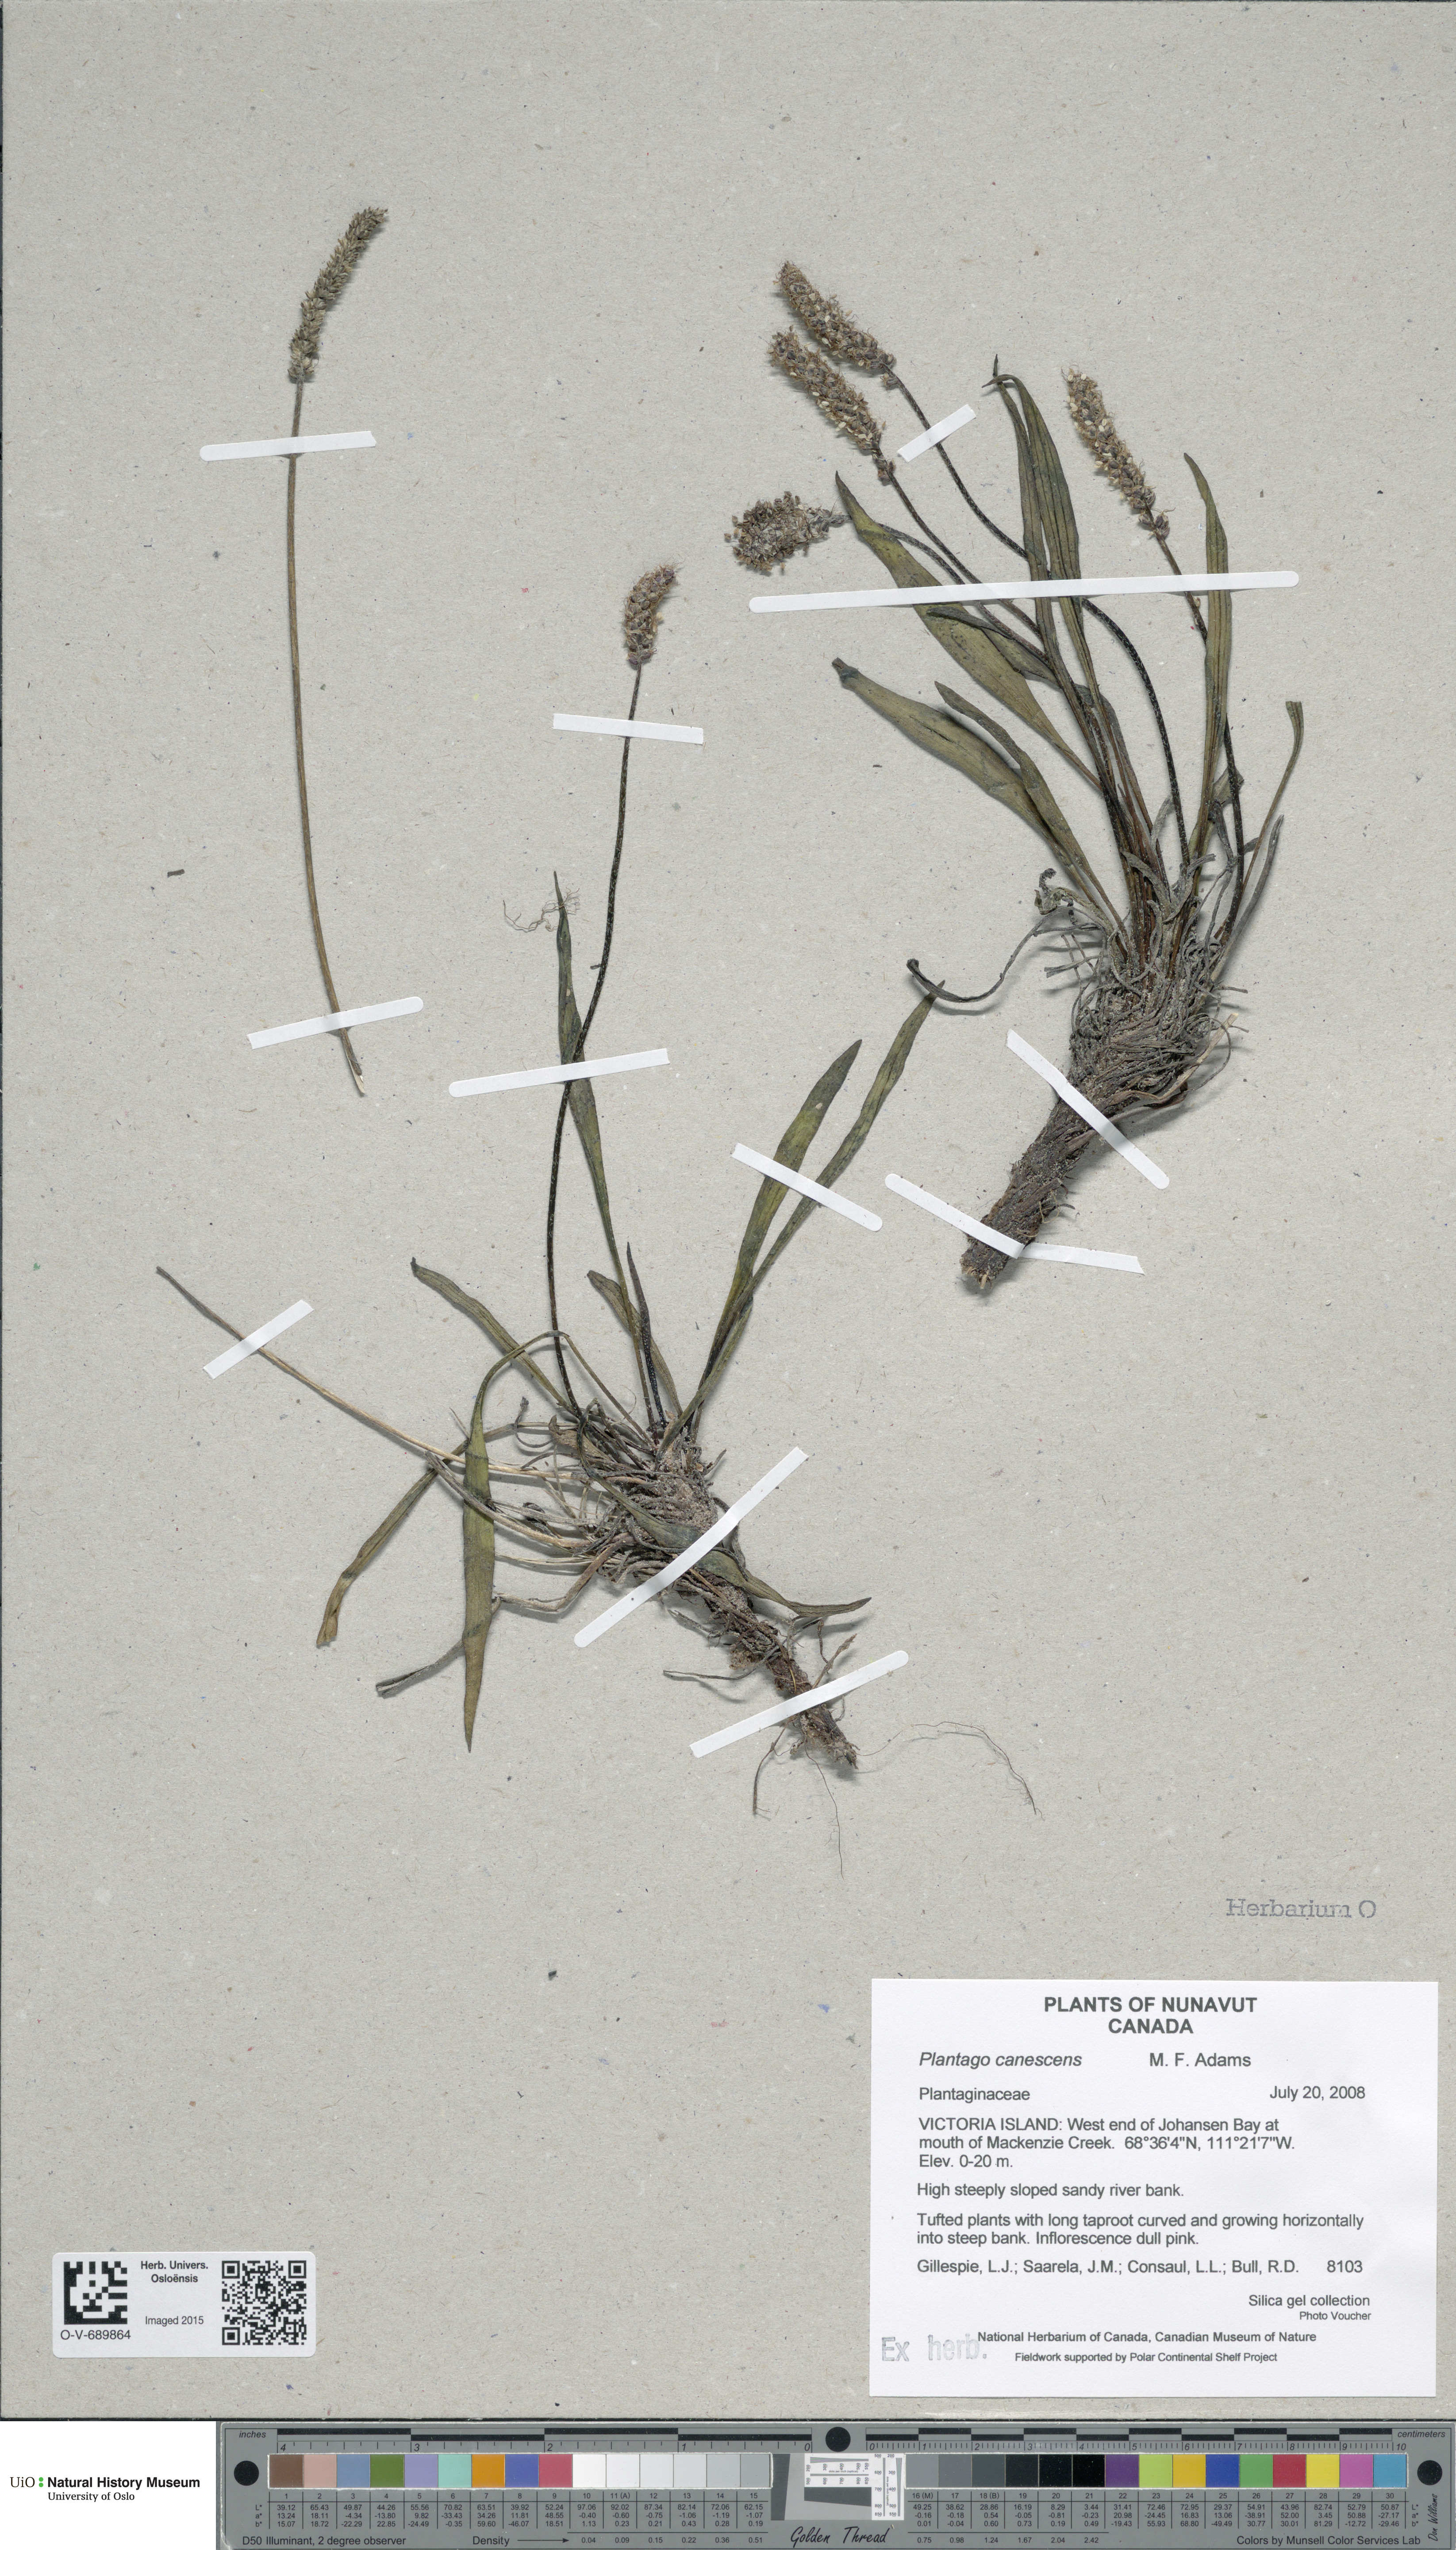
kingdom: Plantae
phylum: Tracheophyta
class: Magnoliopsida
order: Lamiales
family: Plantaginaceae
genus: Plantago
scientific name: Plantago canescens
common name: Siberian plantain
